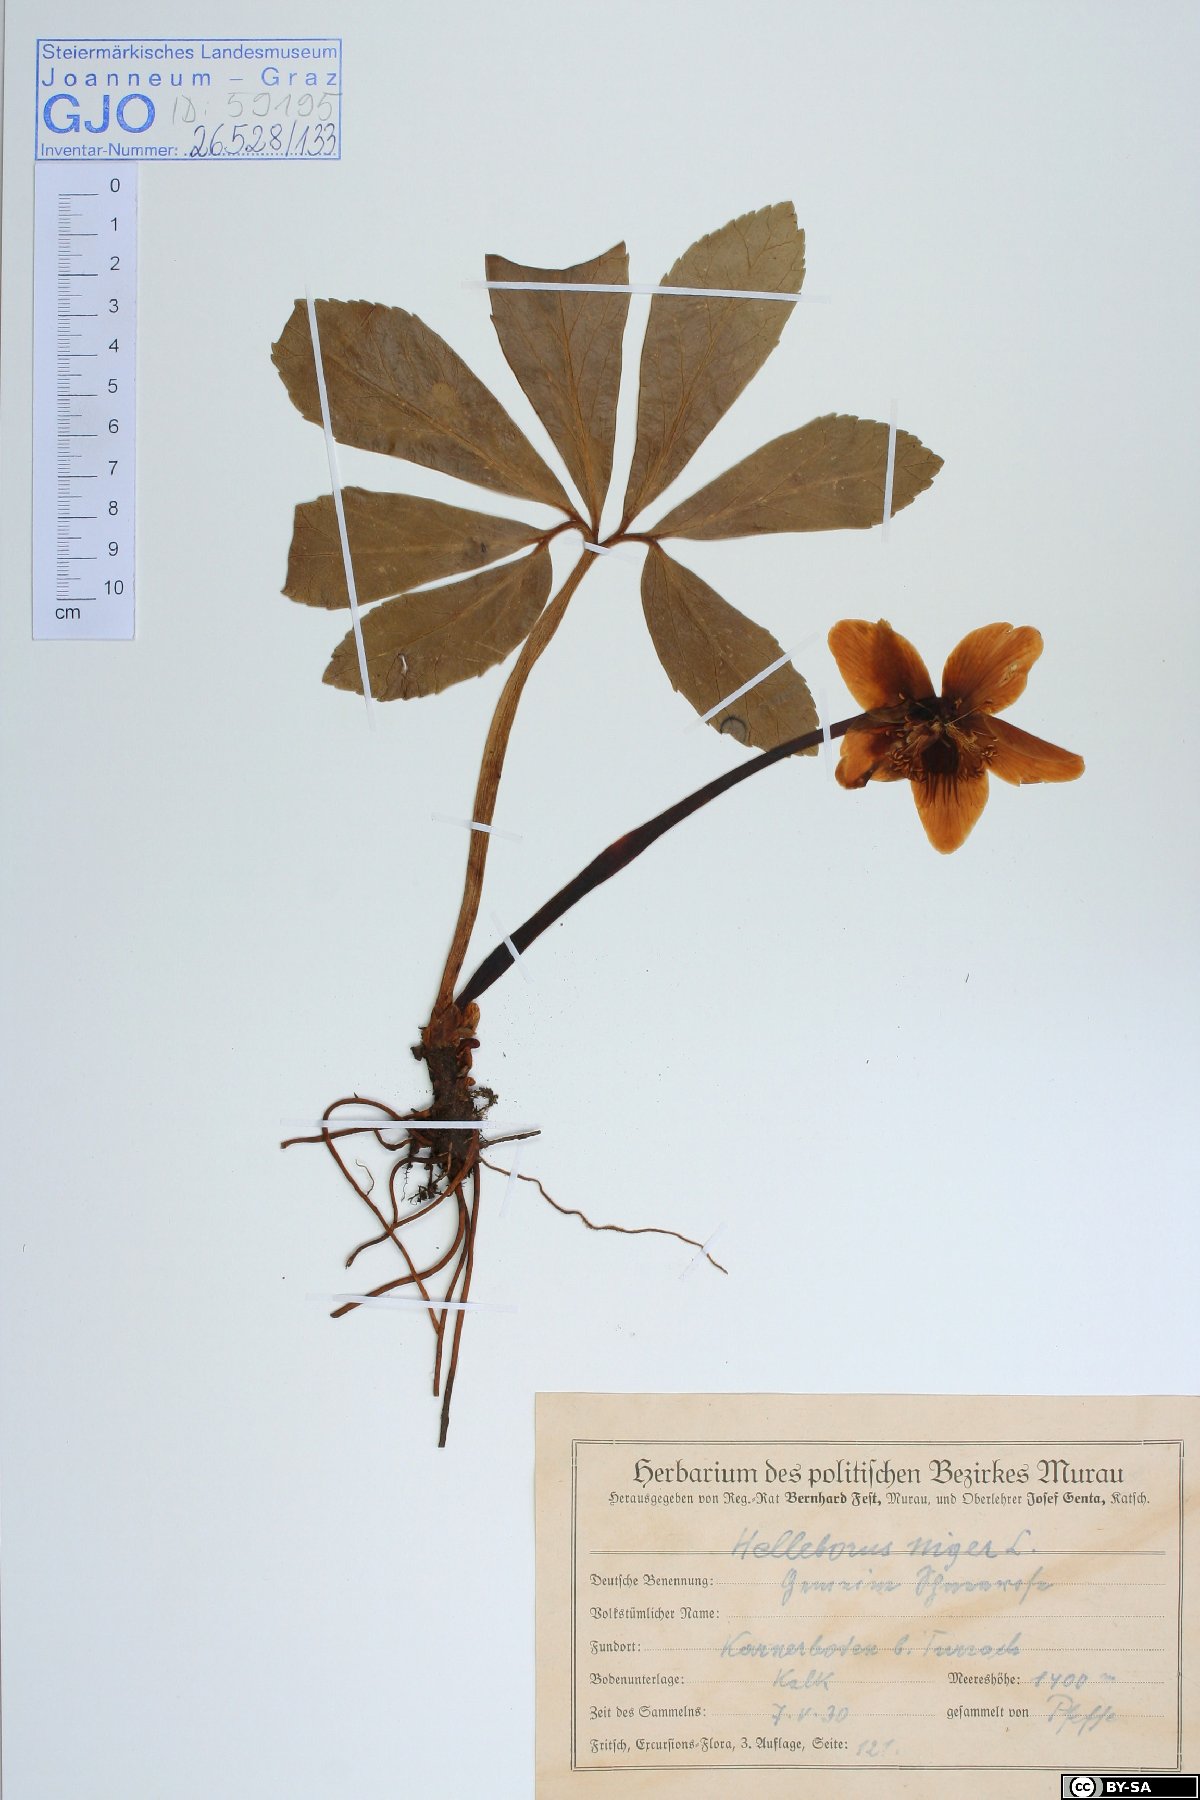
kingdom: Plantae
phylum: Tracheophyta
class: Magnoliopsida
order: Ranunculales
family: Ranunculaceae
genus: Helleborus
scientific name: Helleborus niger
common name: Black hellebore
